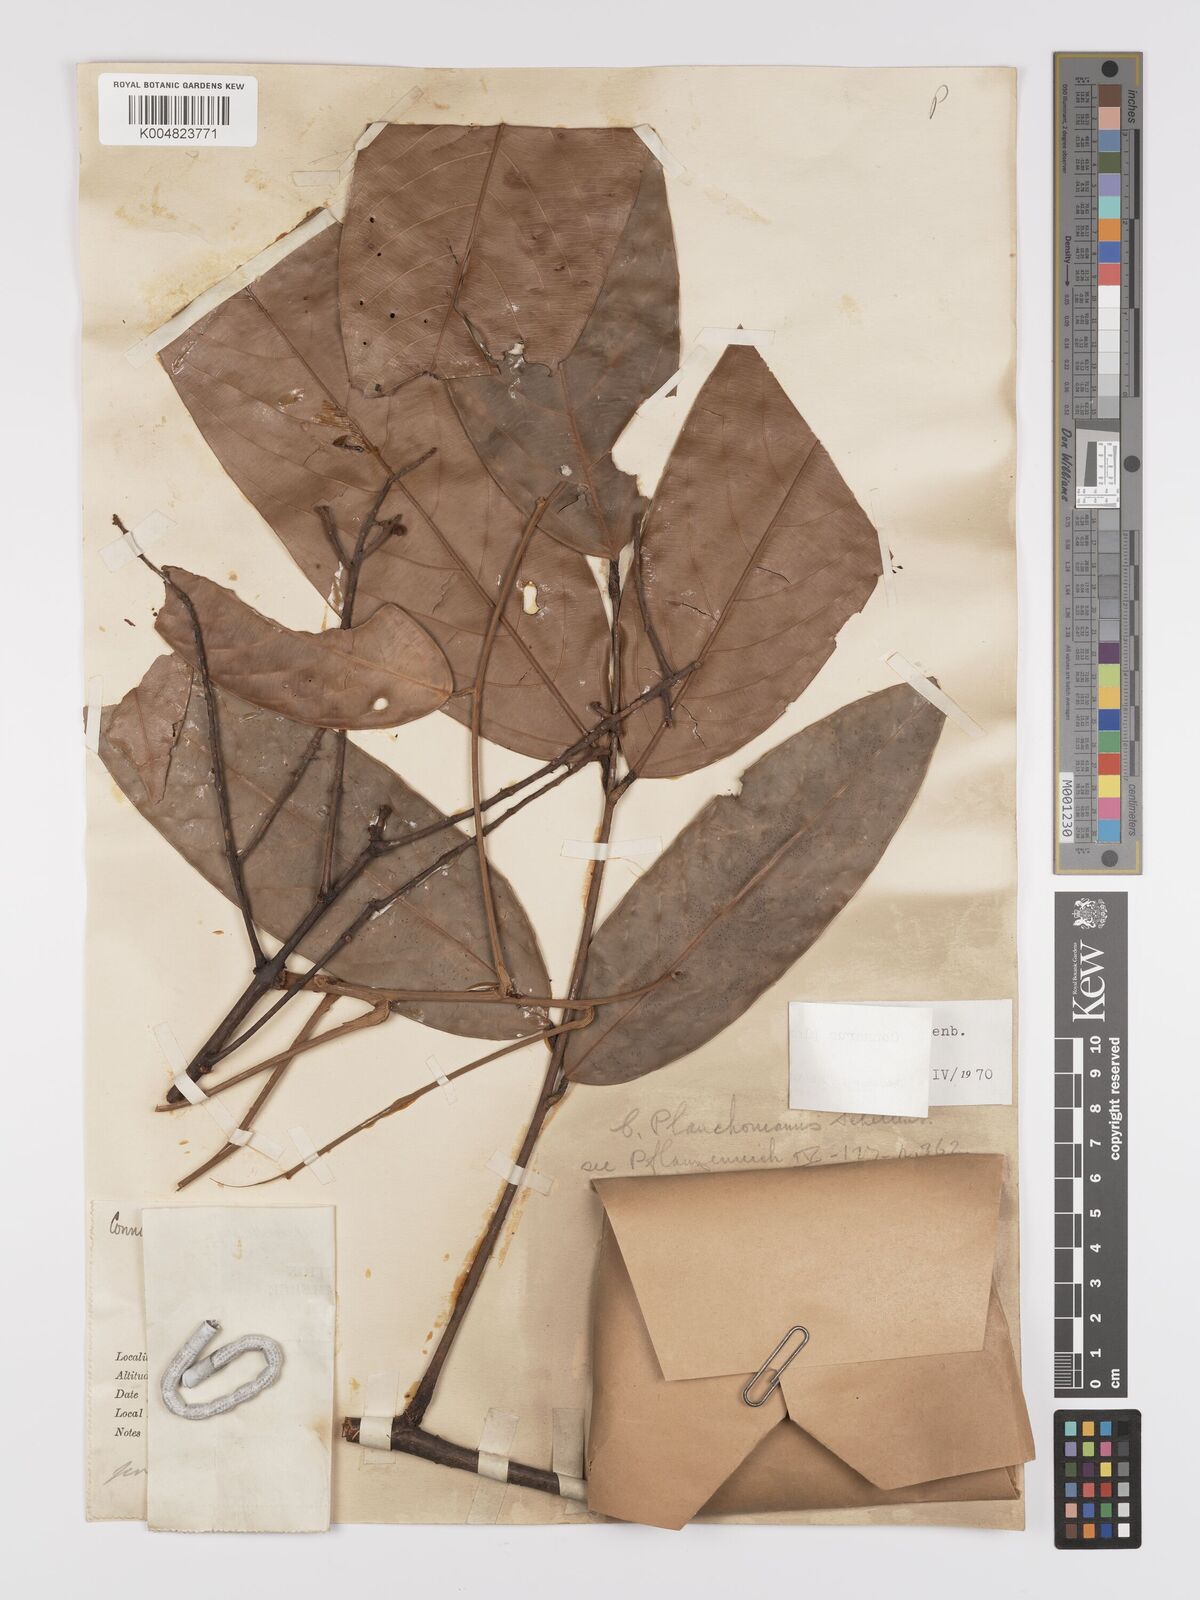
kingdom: Plantae
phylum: Tracheophyta
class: Magnoliopsida
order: Oxalidales
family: Connaraceae
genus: Connarus
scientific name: Connarus planchonianus
